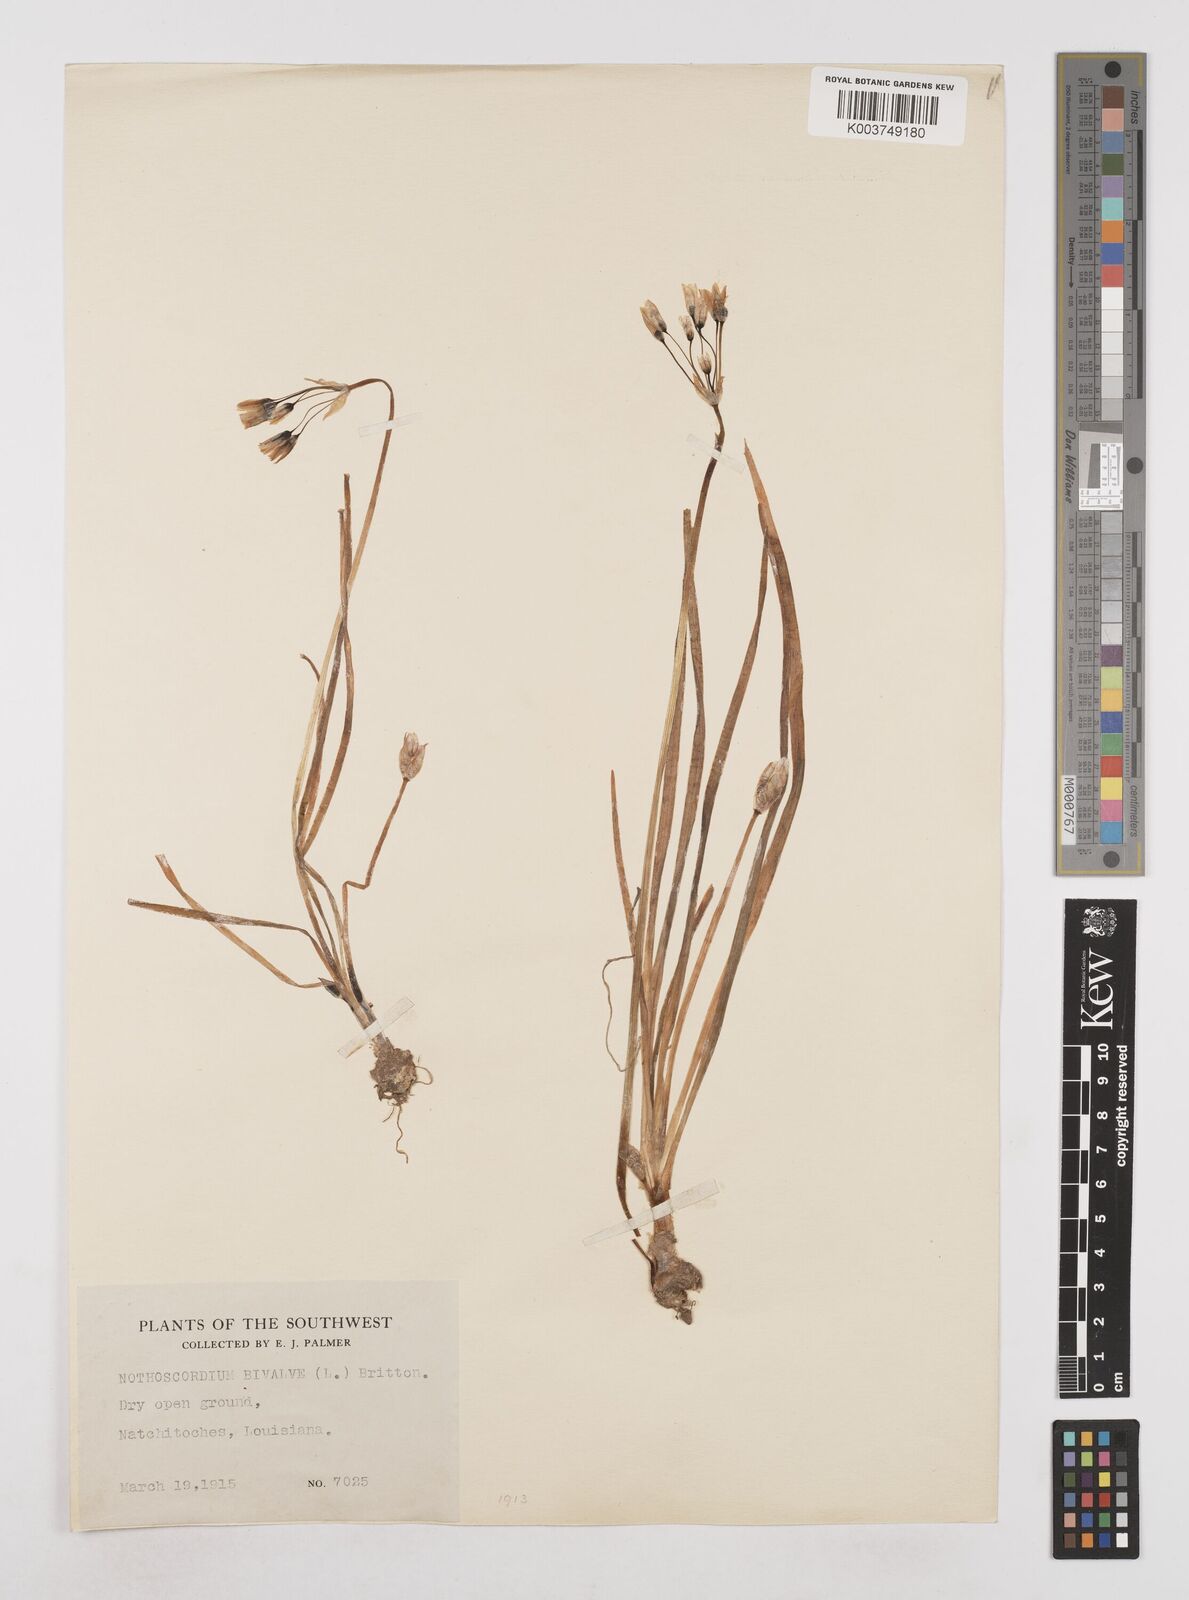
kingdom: Plantae
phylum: Tracheophyta
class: Liliopsida
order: Asparagales
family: Amaryllidaceae
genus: Nothoscordum
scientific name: Nothoscordum bivalve
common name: Crow-poison
